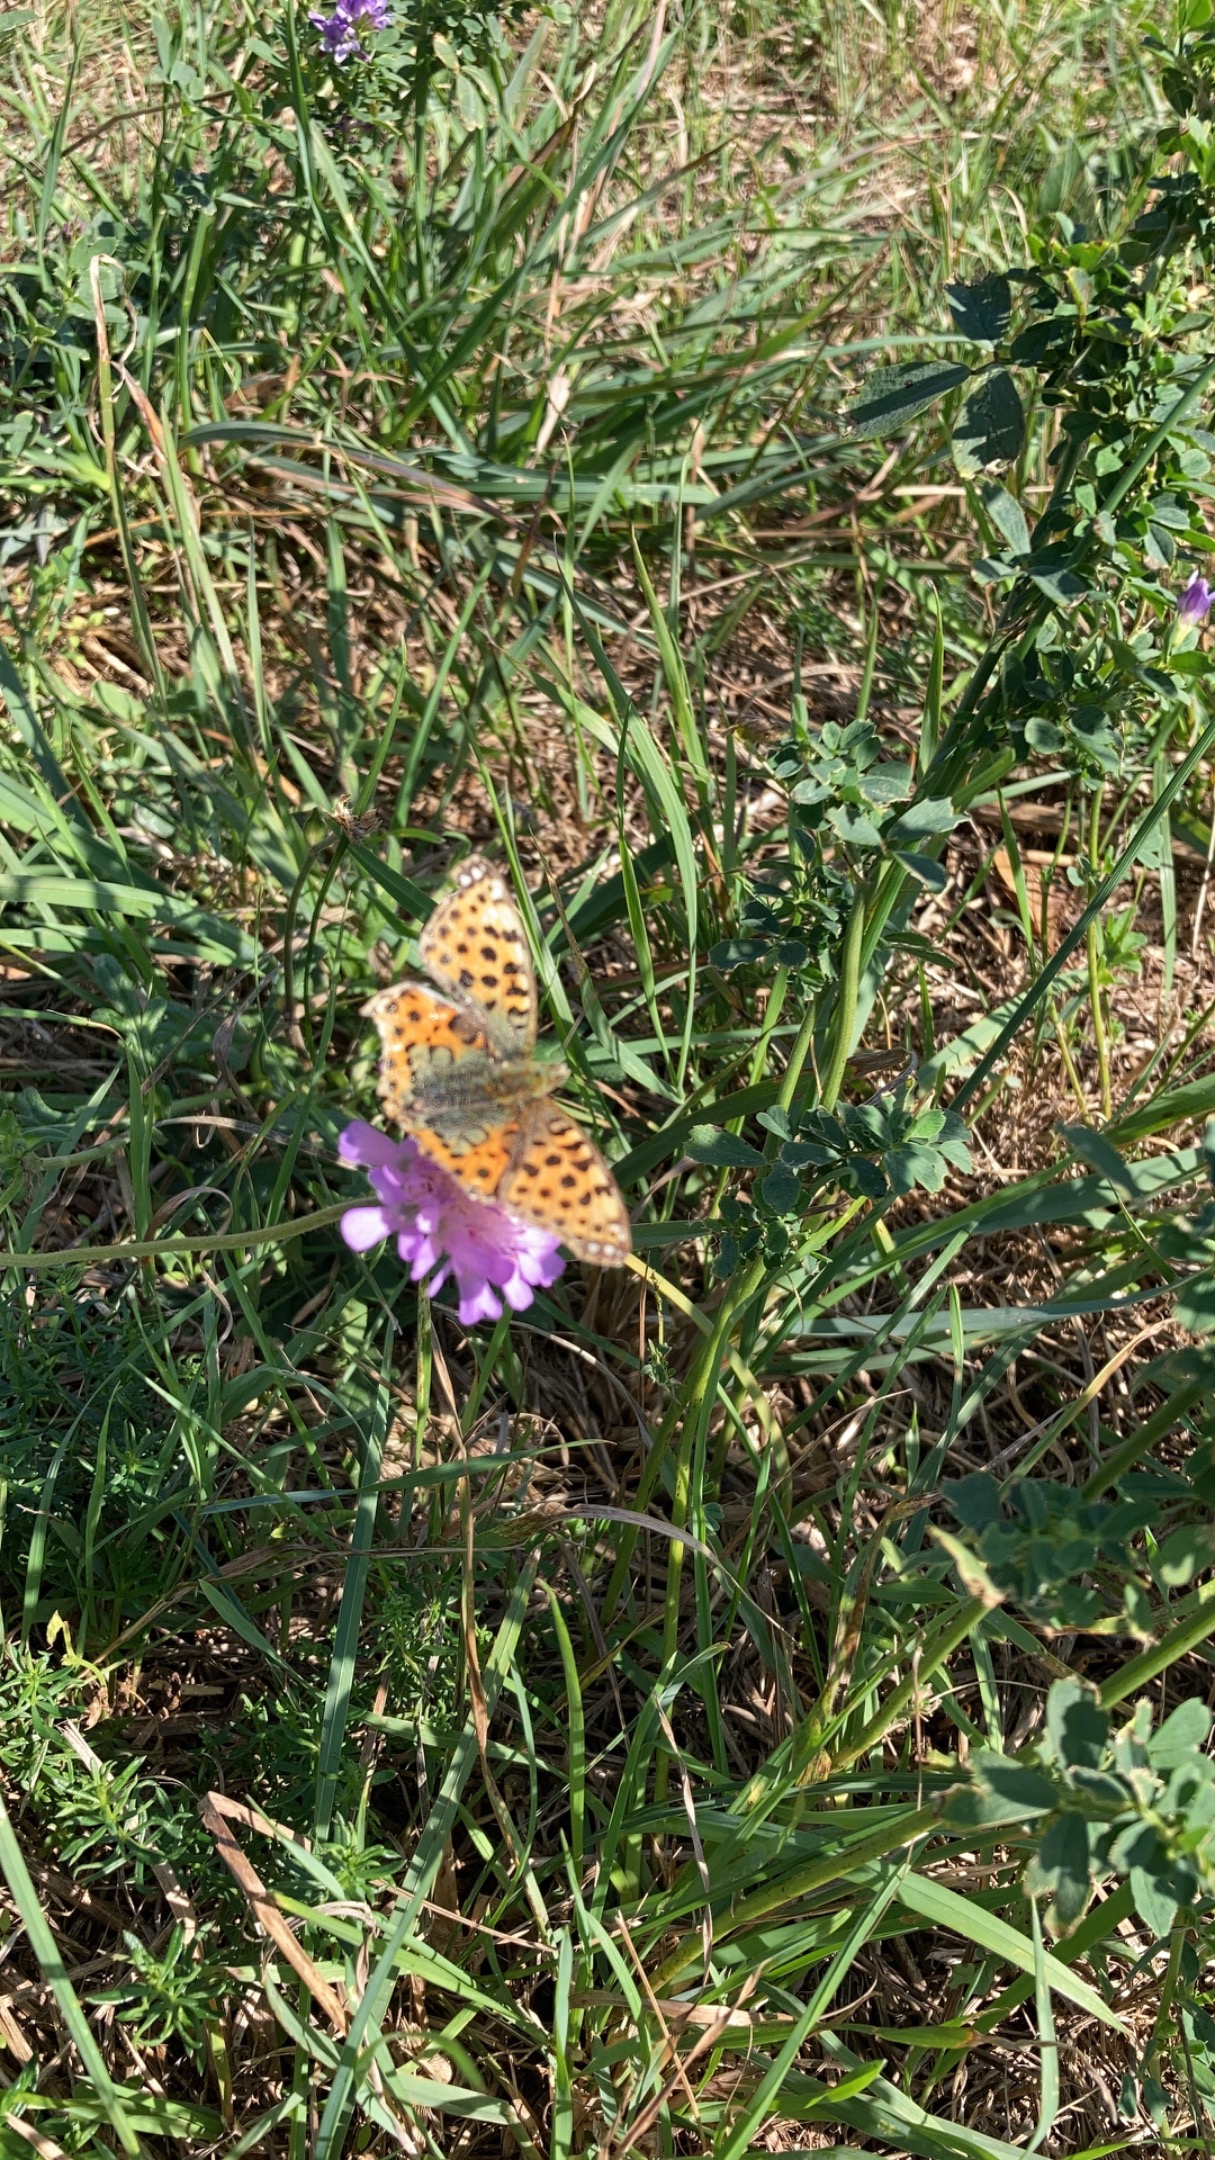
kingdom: Animalia
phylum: Arthropoda
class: Insecta
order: Lepidoptera
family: Nymphalidae
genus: Issoria
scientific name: Issoria lathonia
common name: Storplettet perlemorsommerfugl
